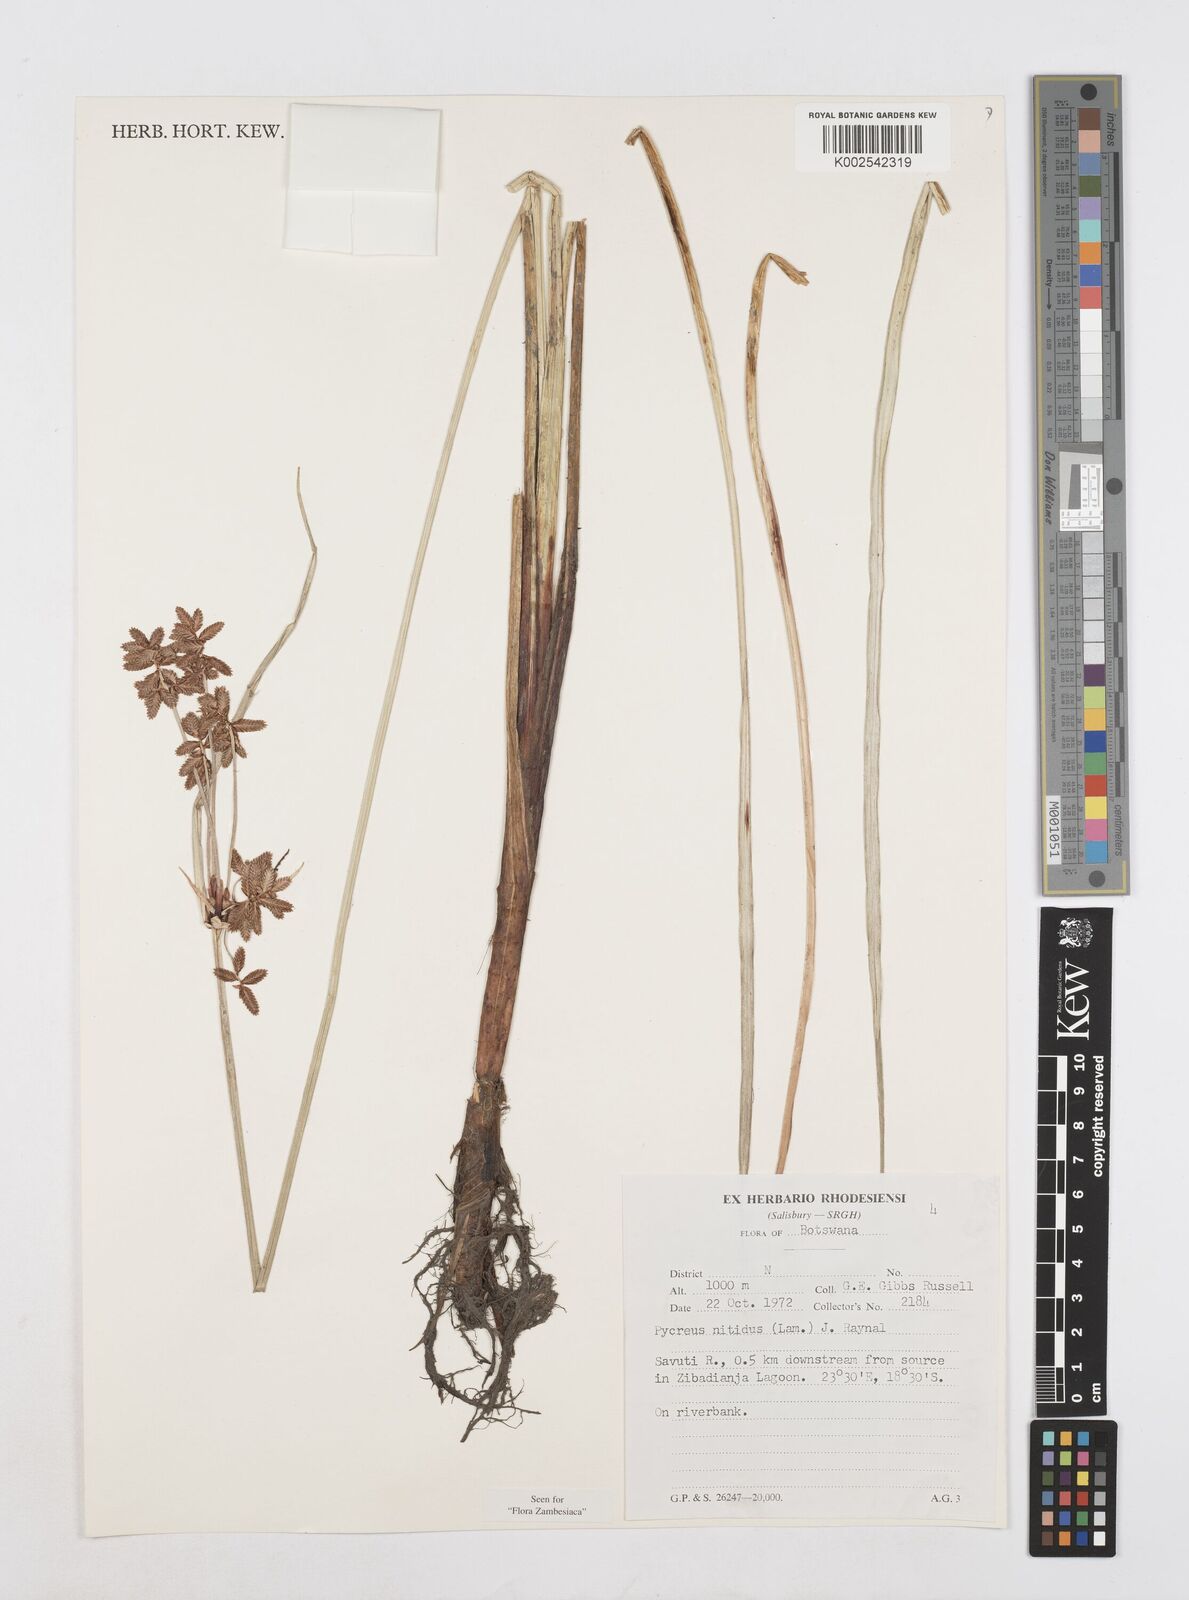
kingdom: Plantae
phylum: Tracheophyta
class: Liliopsida
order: Poales
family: Cyperaceae
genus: Cyperus
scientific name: Cyperus nitidus
